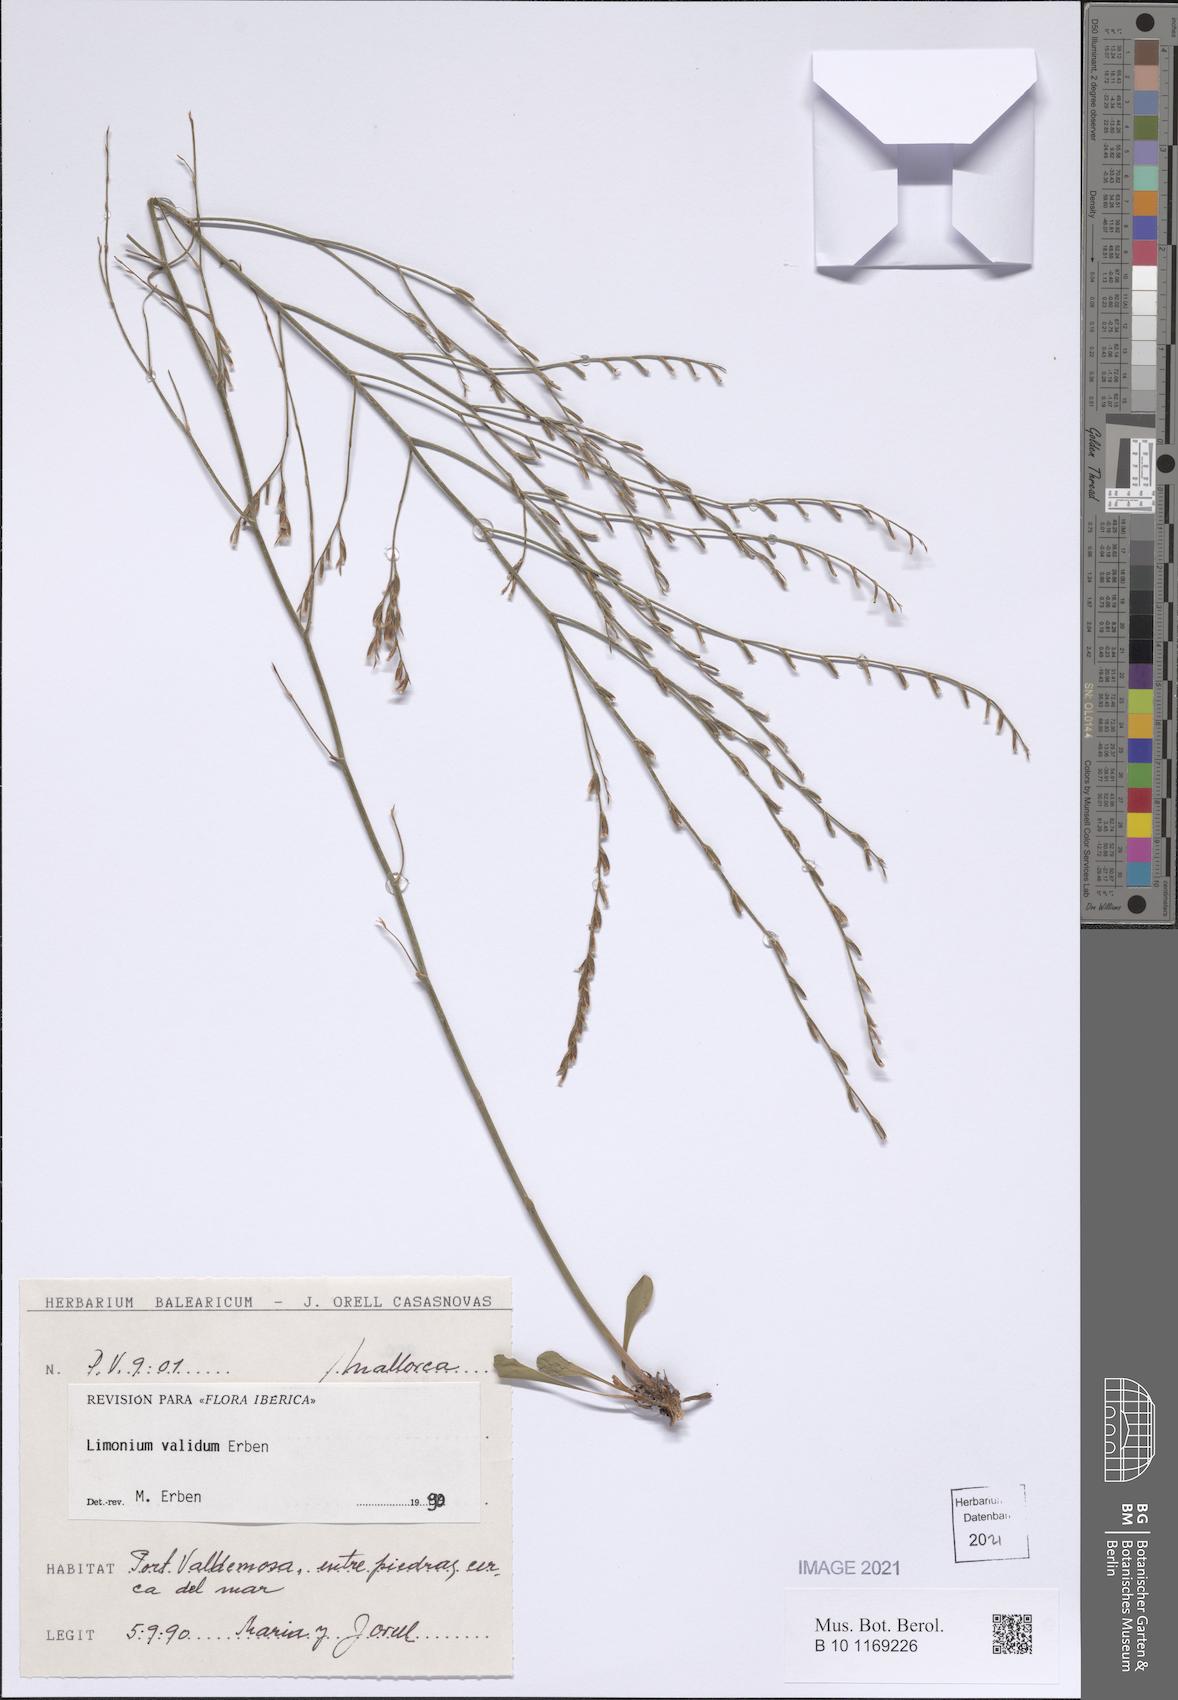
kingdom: Plantae
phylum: Tracheophyta
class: Magnoliopsida
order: Caryophyllales
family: Plumbaginaceae
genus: Limonium
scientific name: Limonium validum
